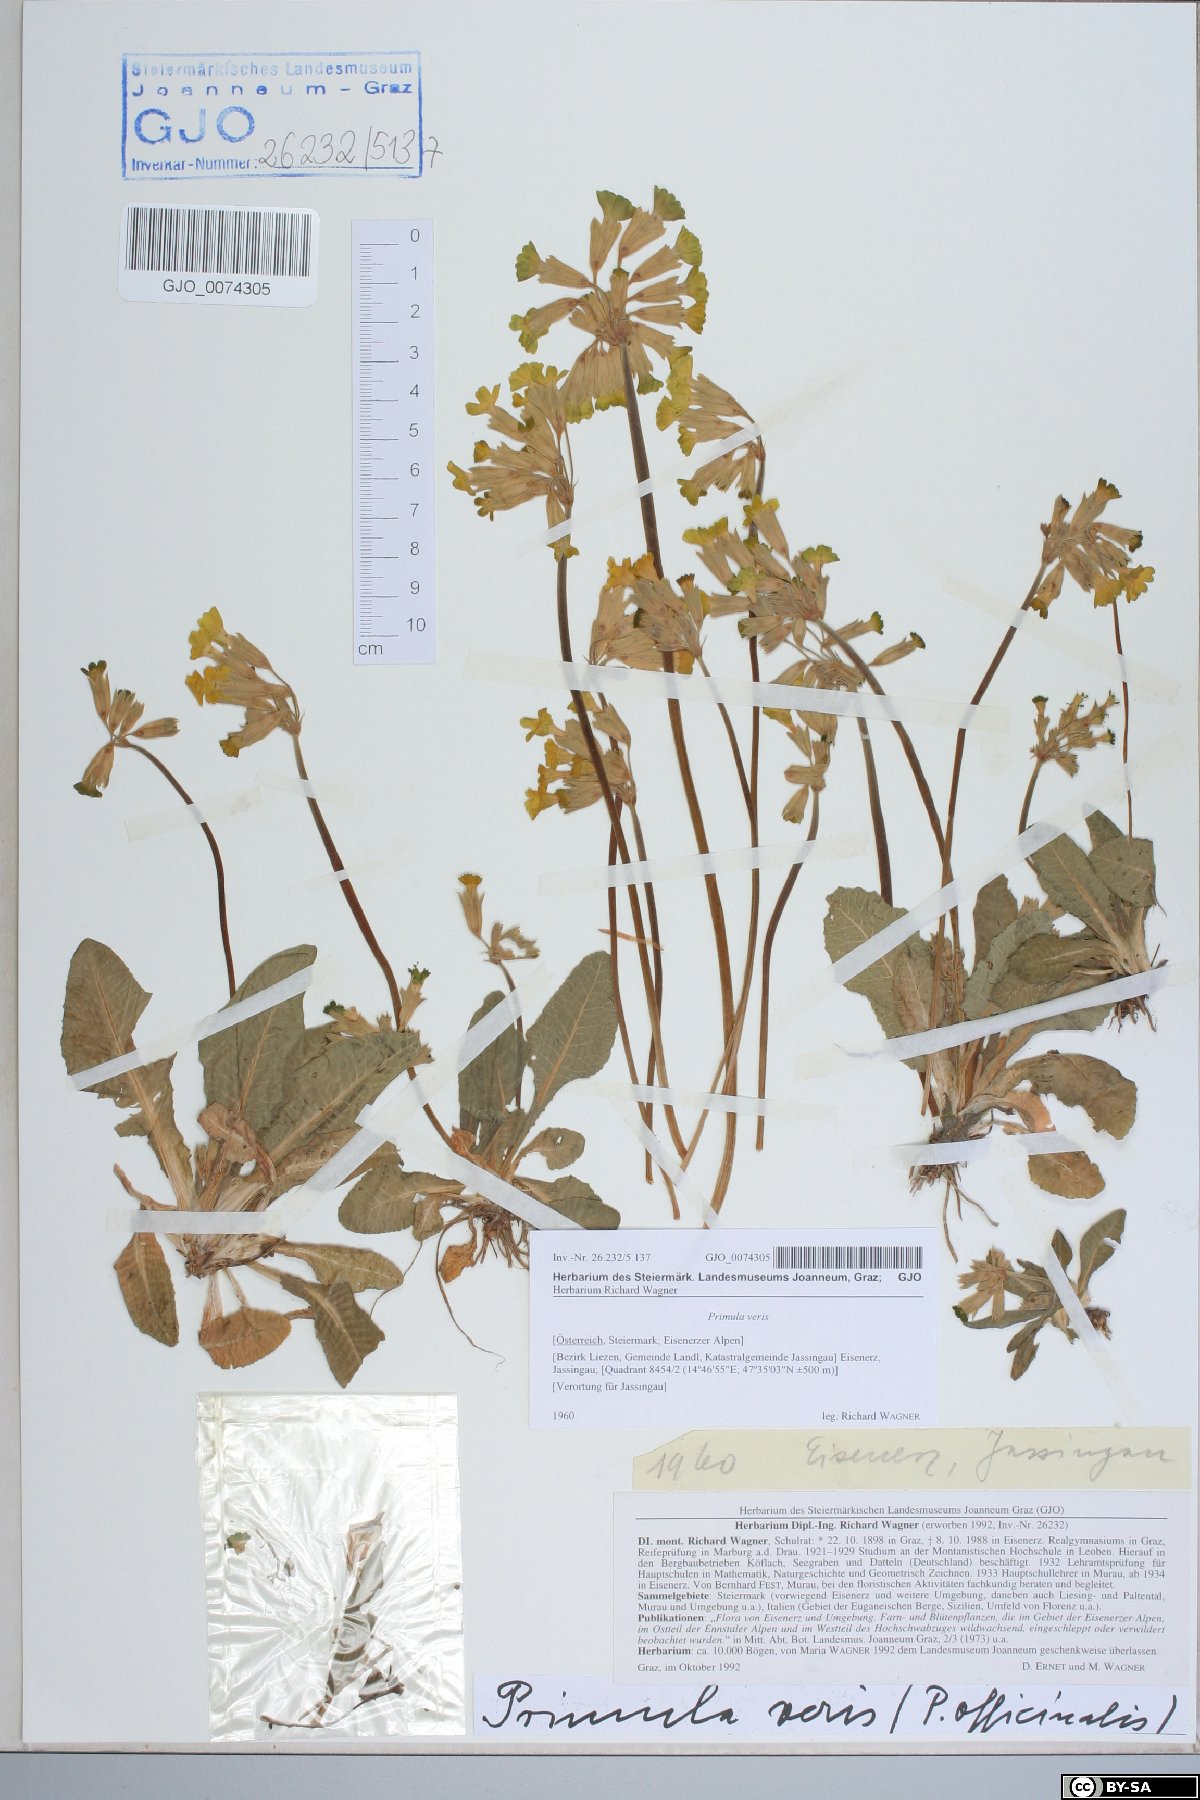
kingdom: Plantae
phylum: Tracheophyta
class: Magnoliopsida
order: Ericales
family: Primulaceae
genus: Primula
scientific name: Primula veris
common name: Cowslip
